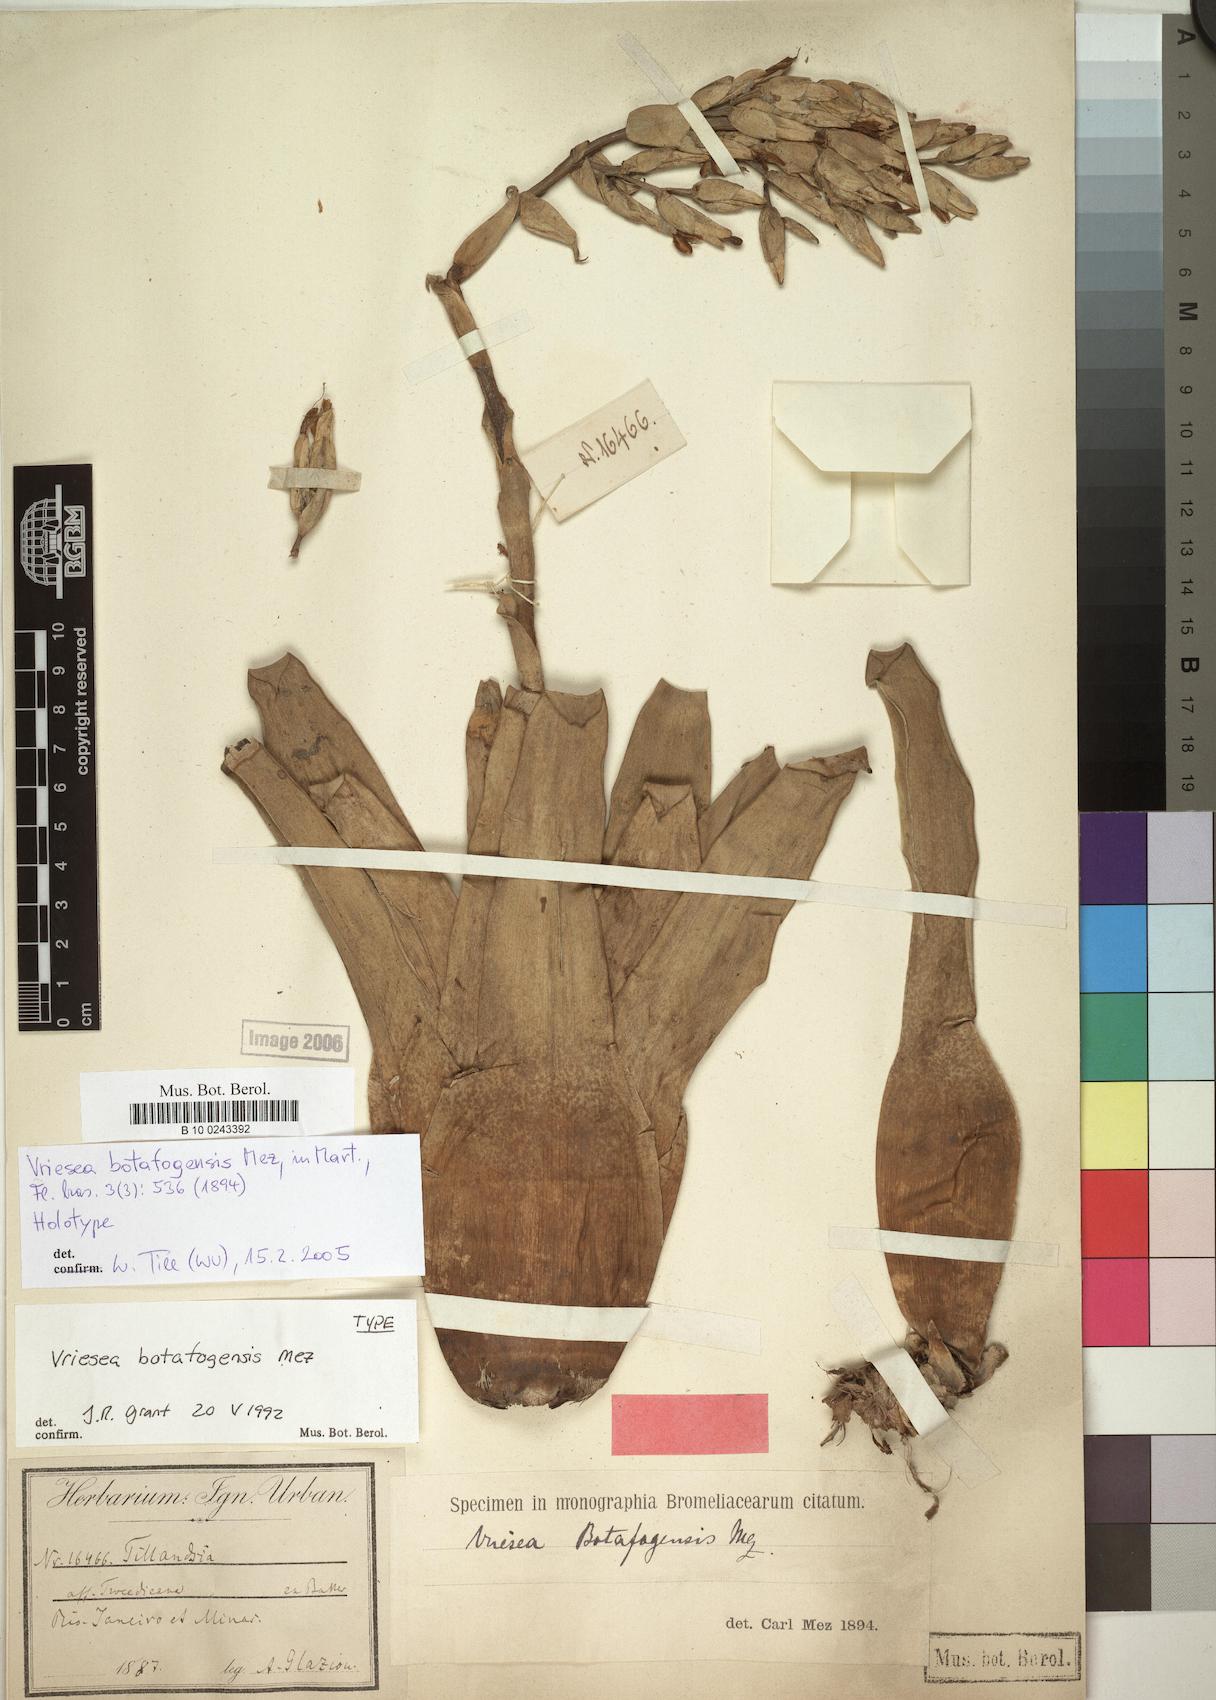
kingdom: Plantae
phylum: Tracheophyta
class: Liliopsida
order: Poales
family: Bromeliaceae
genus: Vriesea
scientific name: Vriesea saundersii
